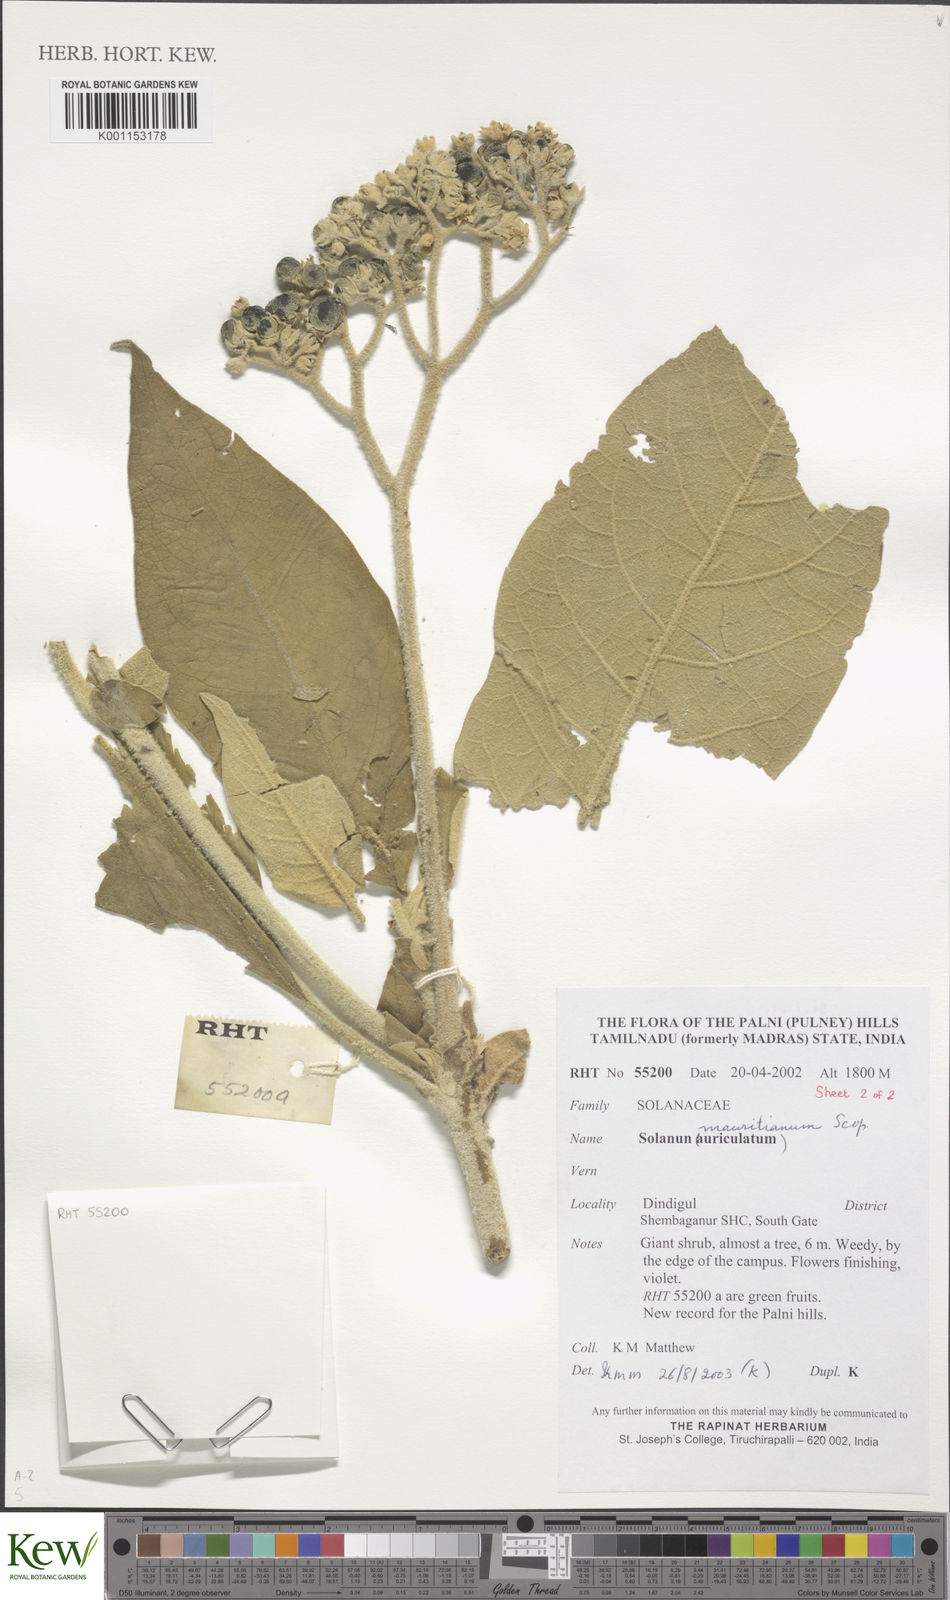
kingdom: Plantae
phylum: Tracheophyta
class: Magnoliopsida
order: Solanales
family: Solanaceae
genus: Solanum
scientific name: Solanum mauritianum
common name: Earleaf nightshade
